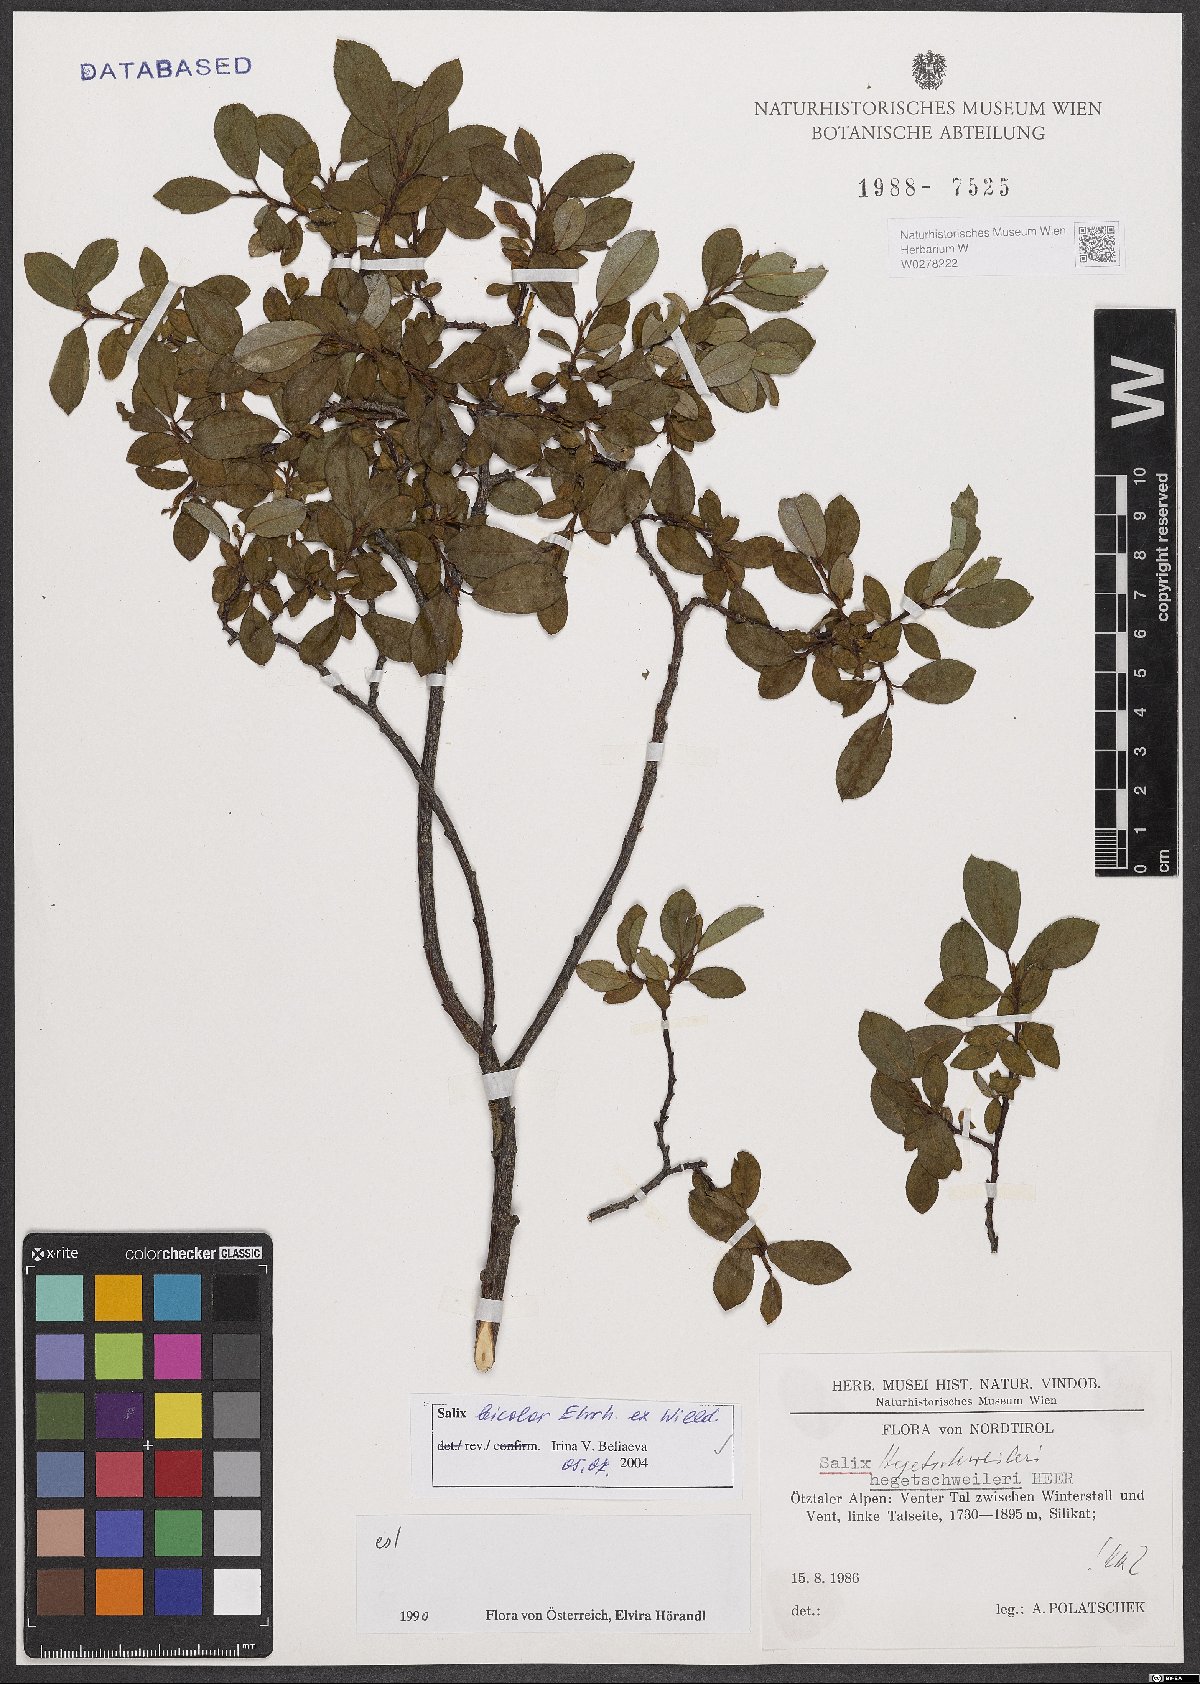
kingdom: Plantae
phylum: Tracheophyta
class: Magnoliopsida
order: Malpighiales
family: Salicaceae
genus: Salix
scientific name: Salix bicolor
